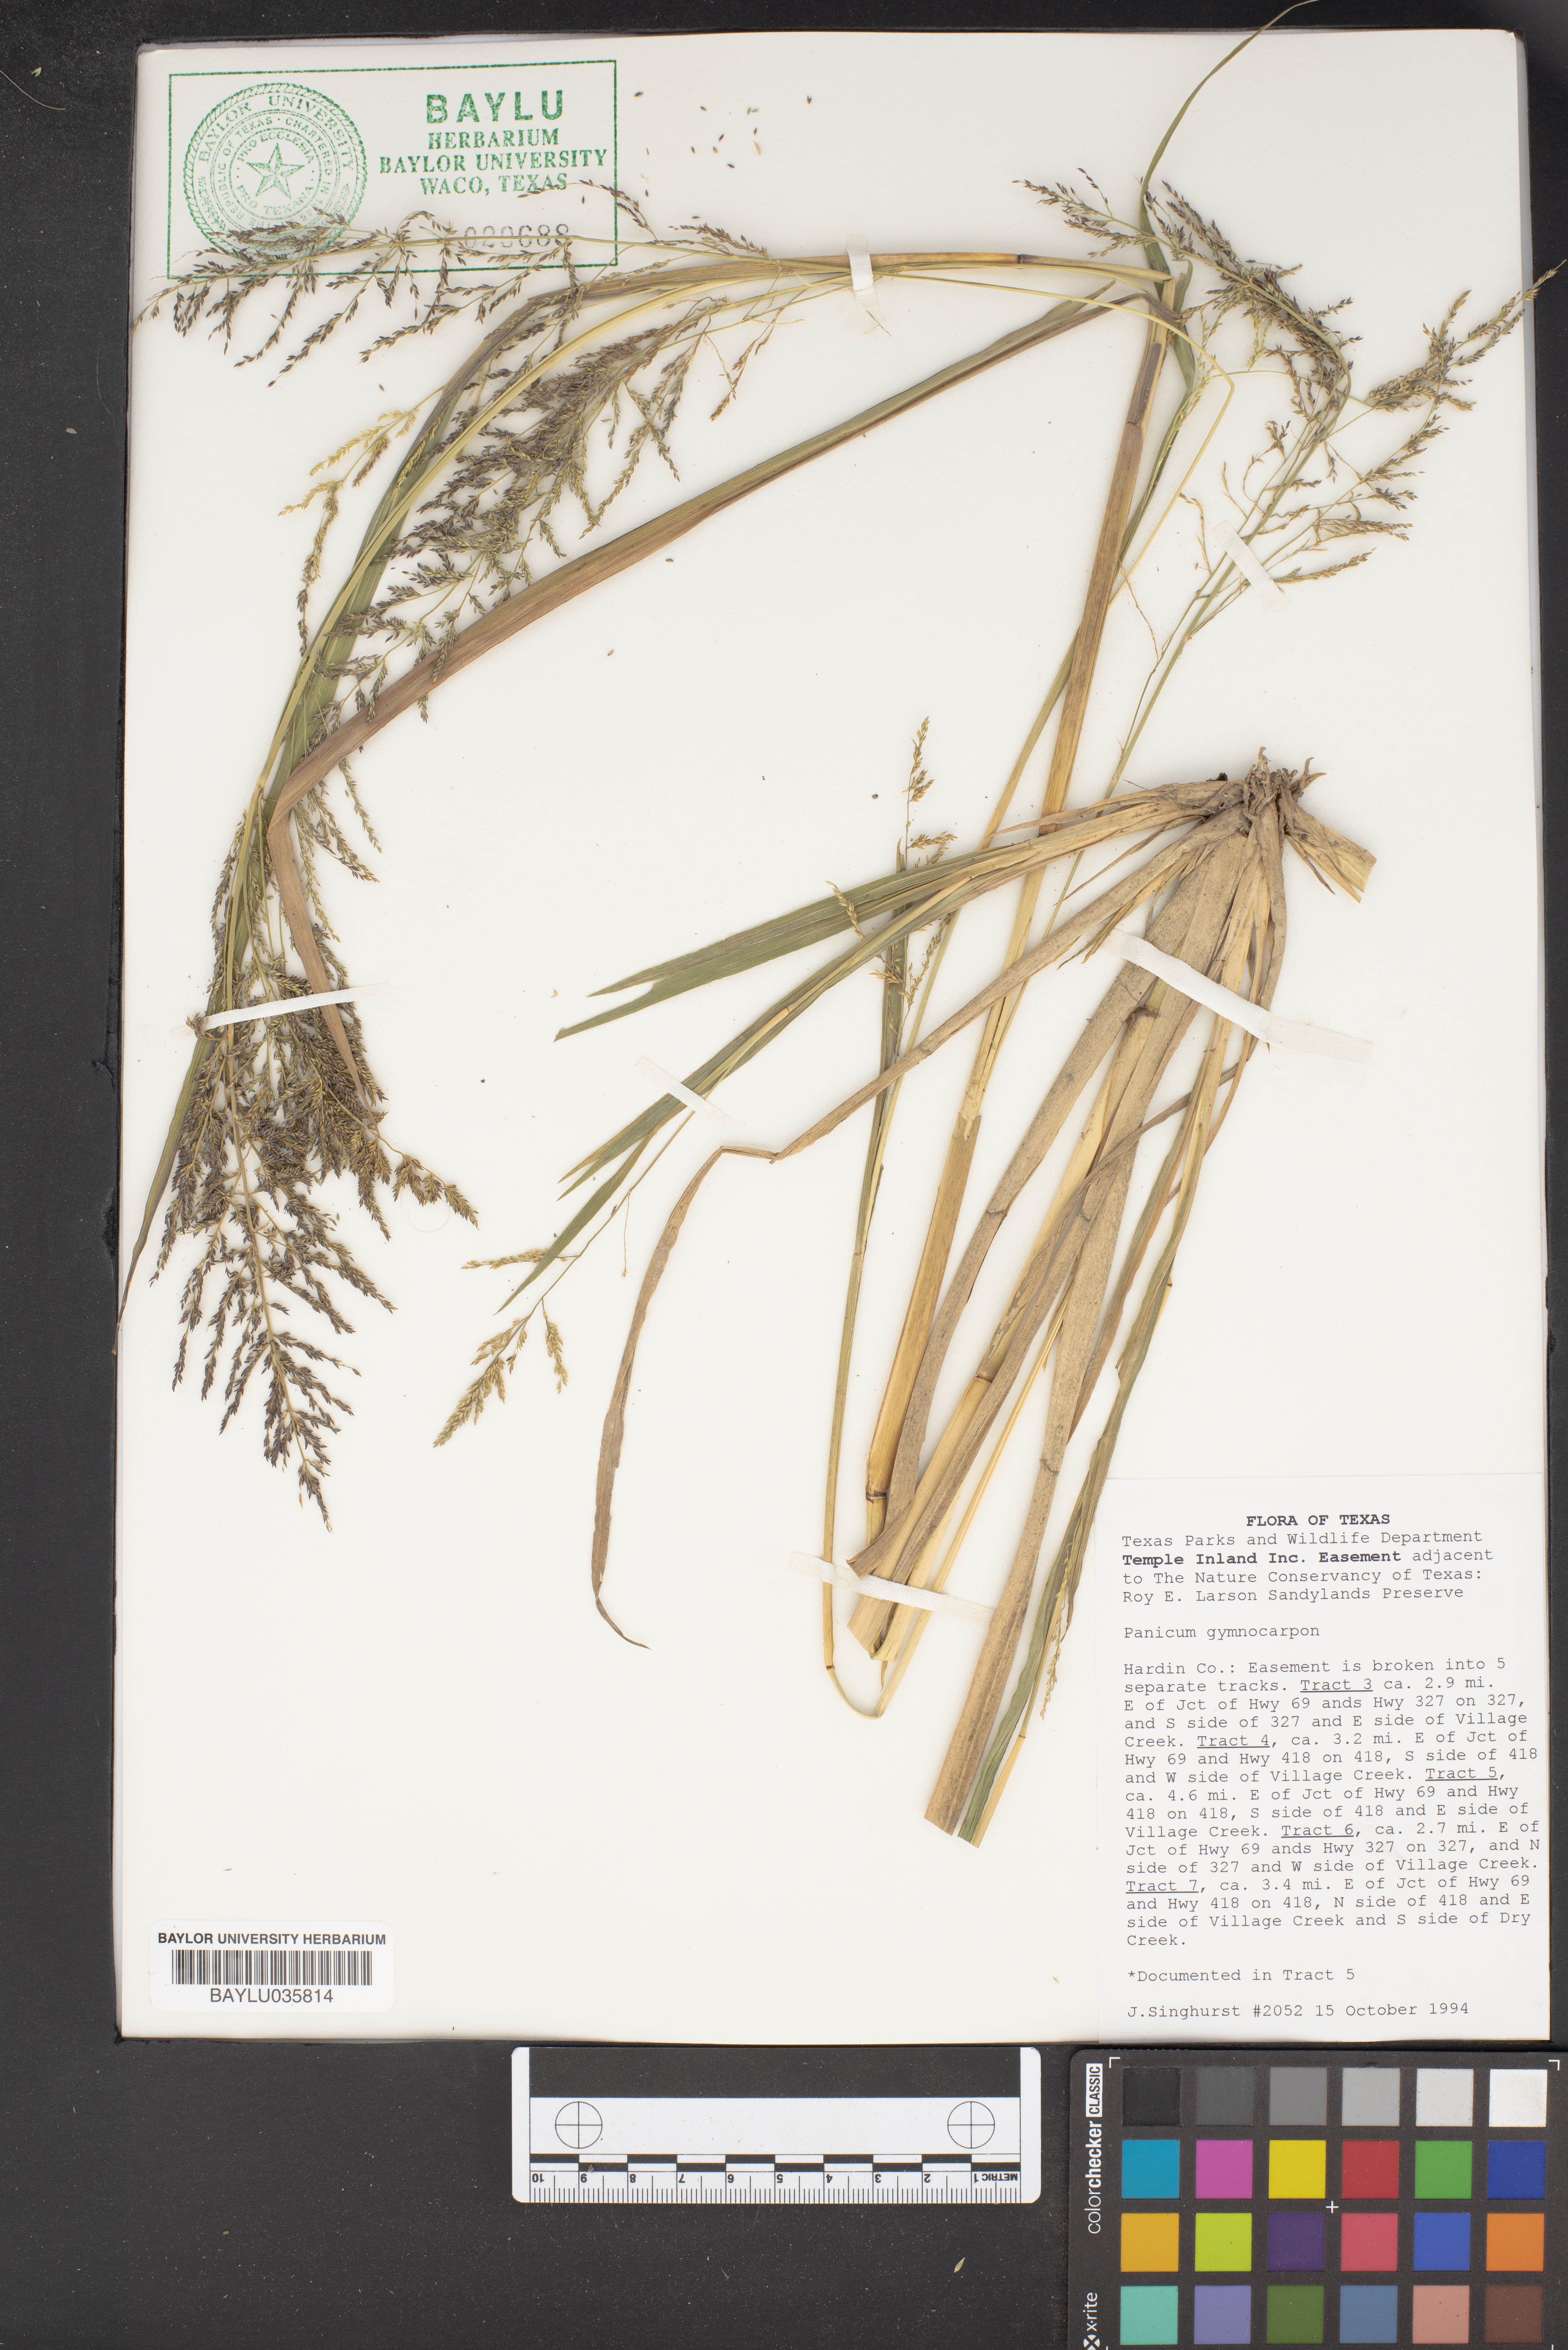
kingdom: Plantae
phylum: Tracheophyta
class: Liliopsida
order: Poales
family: Poaceae
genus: Panicum
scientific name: Panicum gymnocarpon
